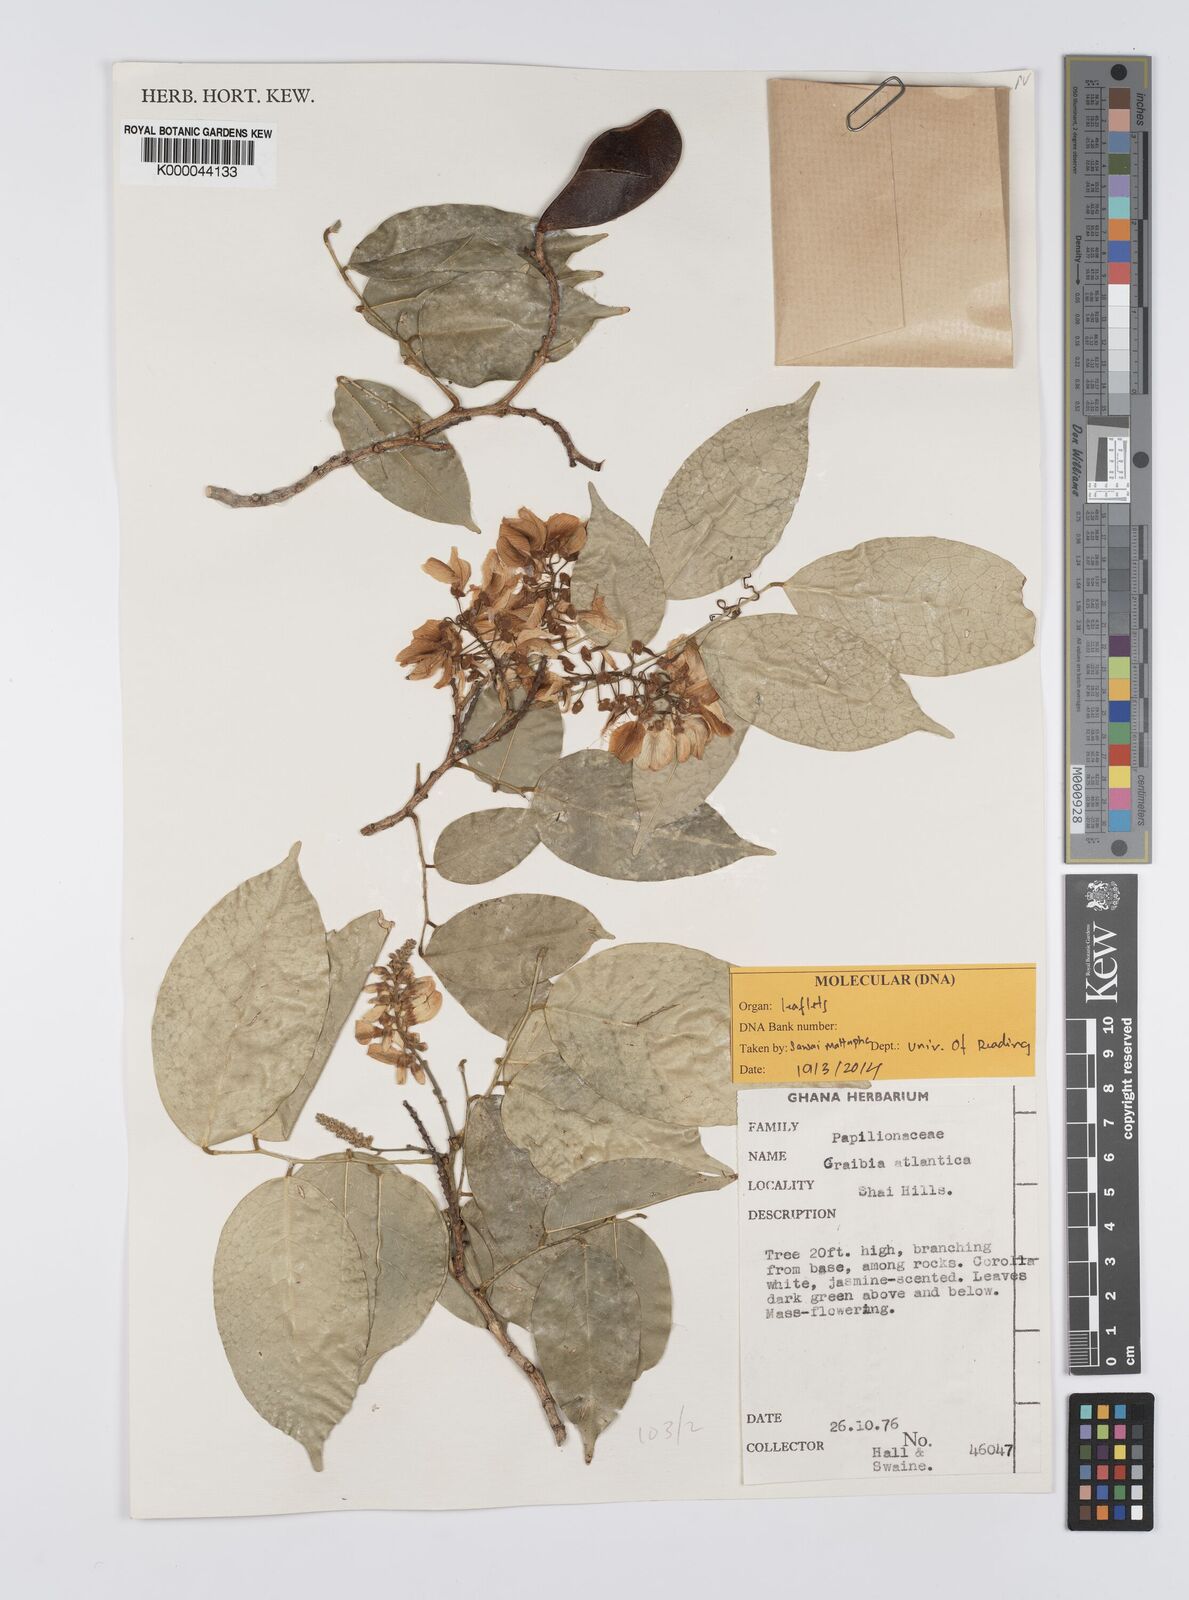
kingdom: Plantae
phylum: Tracheophyta
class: Magnoliopsida
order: Fabales
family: Fabaceae
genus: Craibia
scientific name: Craibia atlantica
